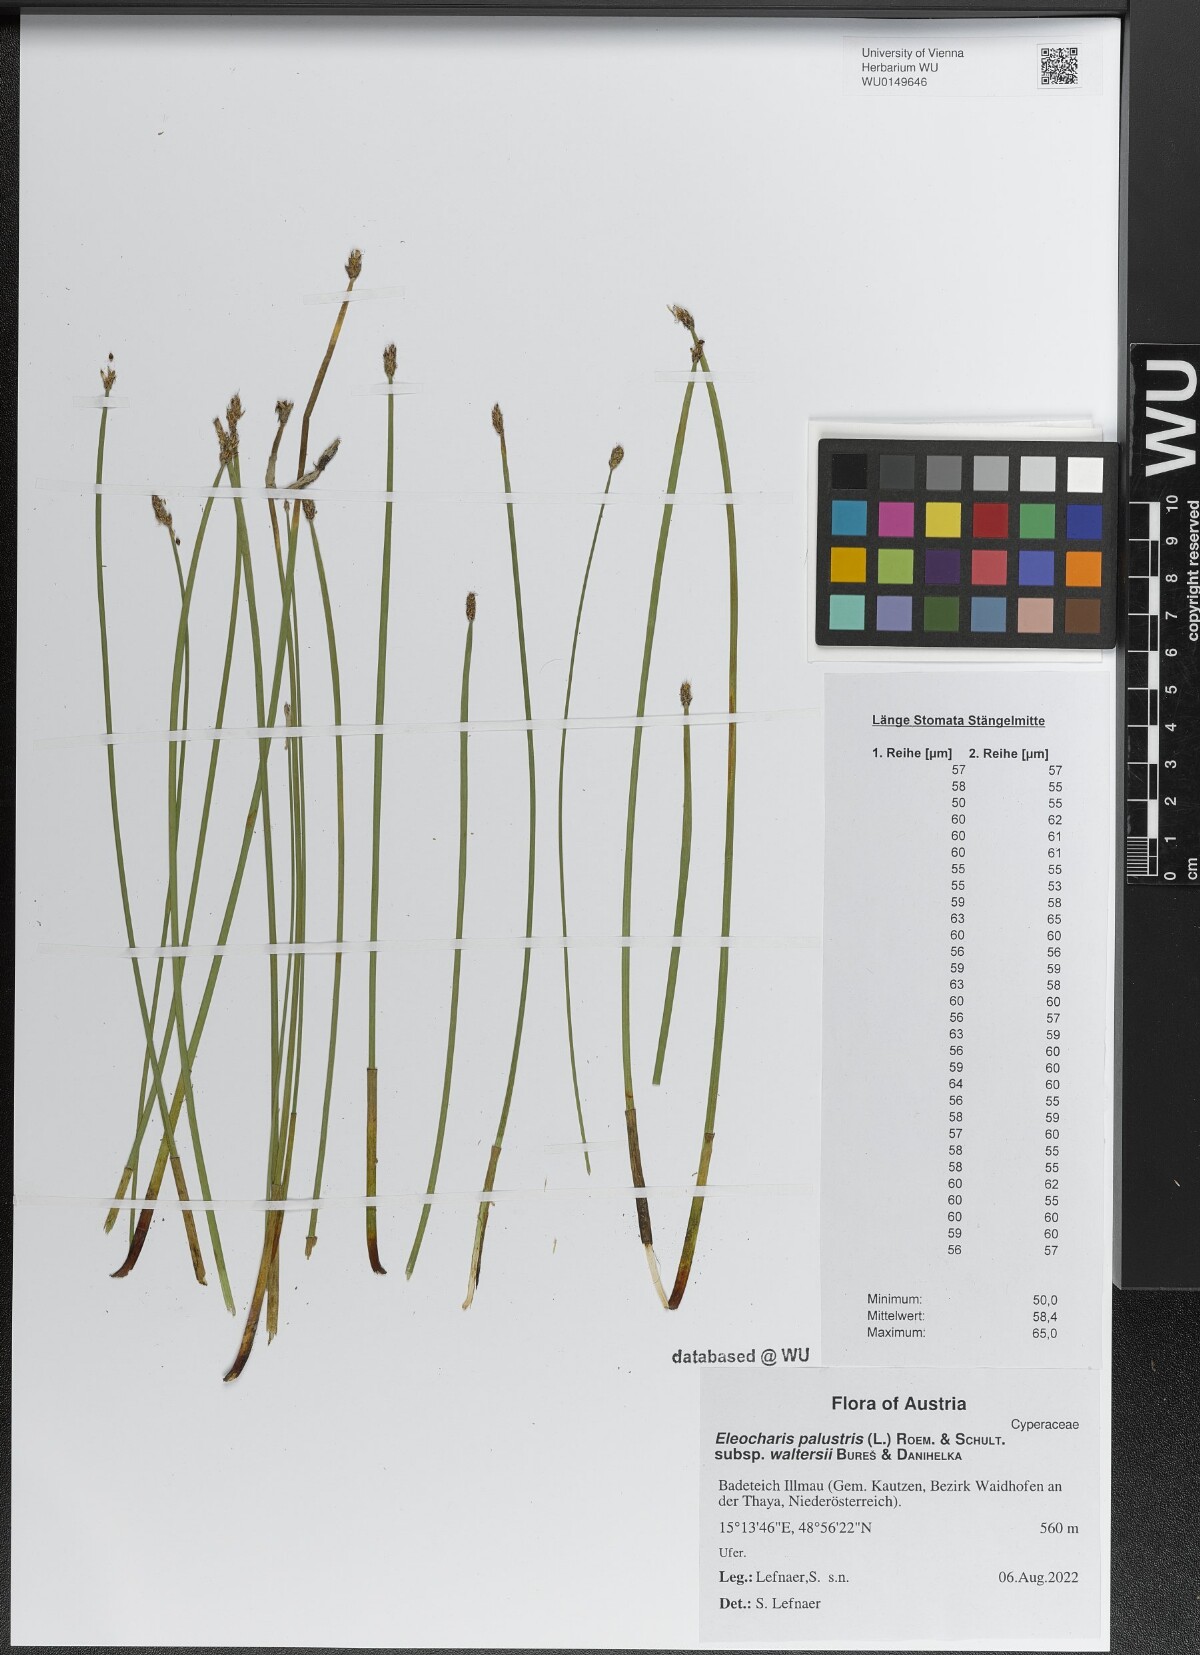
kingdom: Plantae
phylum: Tracheophyta
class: Liliopsida
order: Poales
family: Cyperaceae
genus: Eleocharis
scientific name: Eleocharis palustris
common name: Common spike-rush
